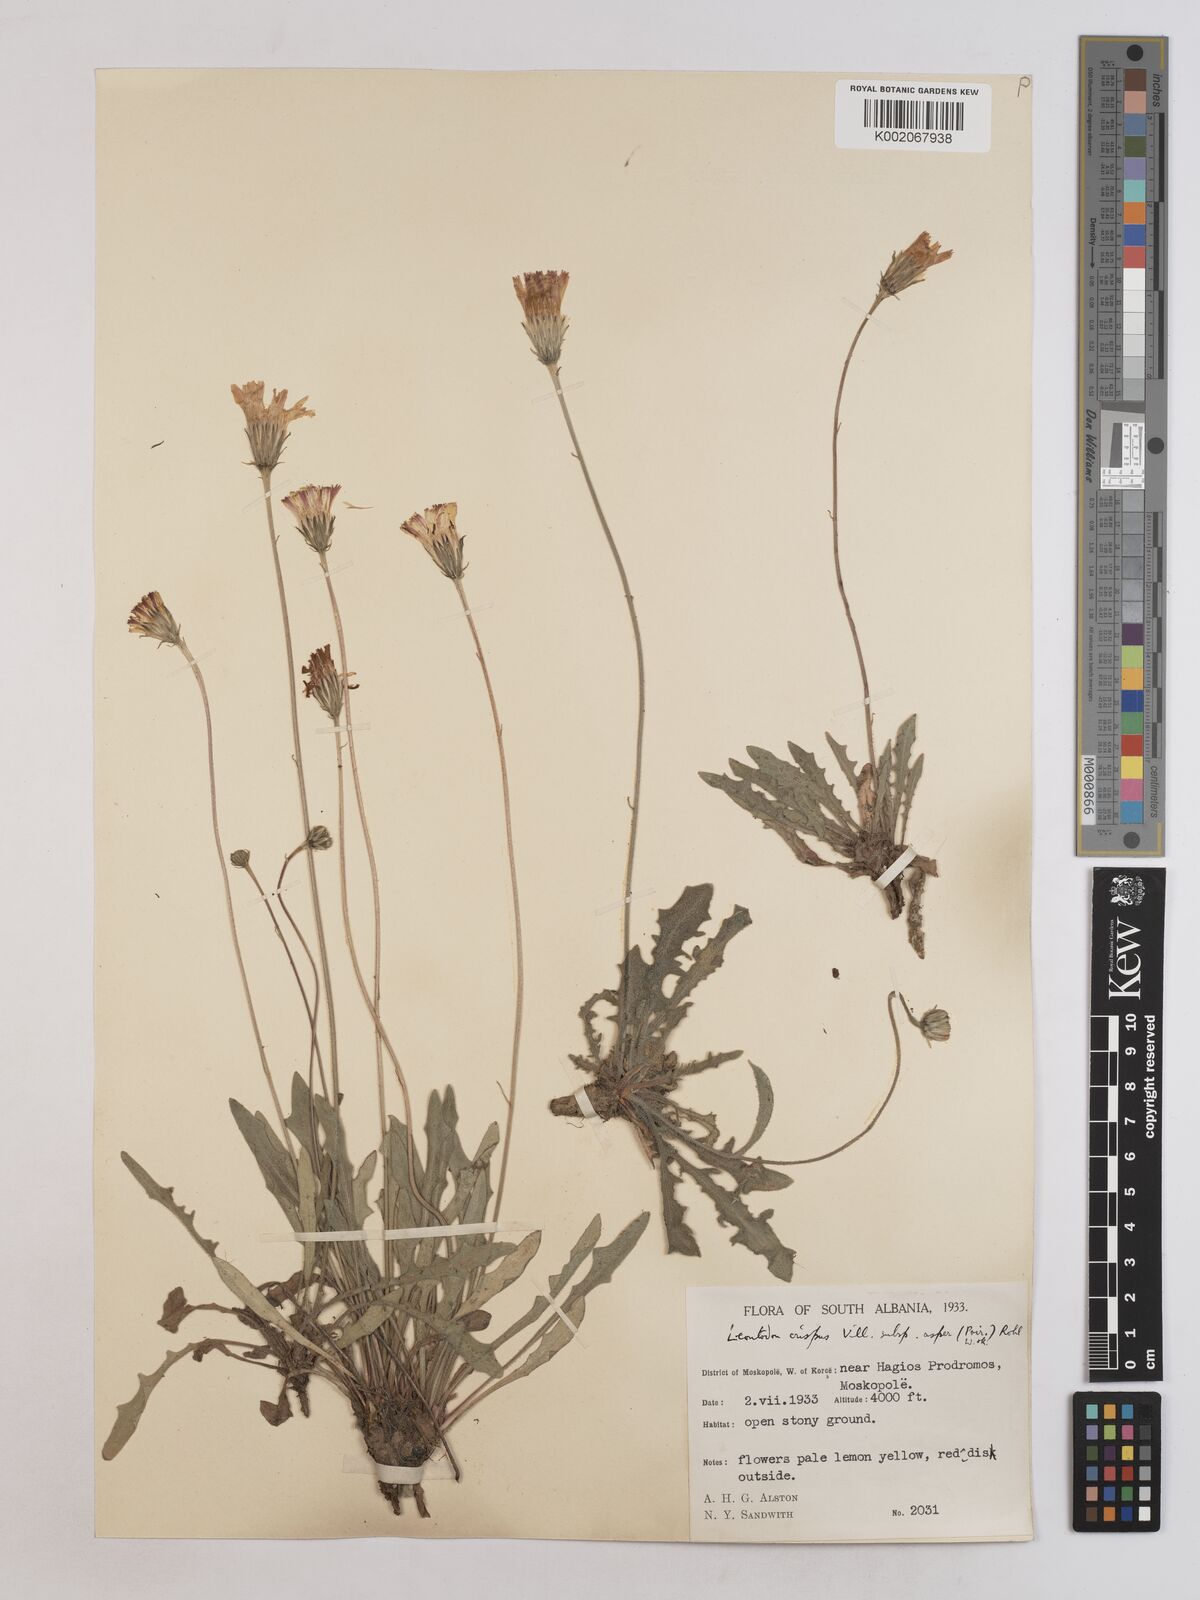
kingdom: Plantae
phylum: Tracheophyta
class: Magnoliopsida
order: Asterales
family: Asteraceae
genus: Leontodon
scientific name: Leontodon crispus
